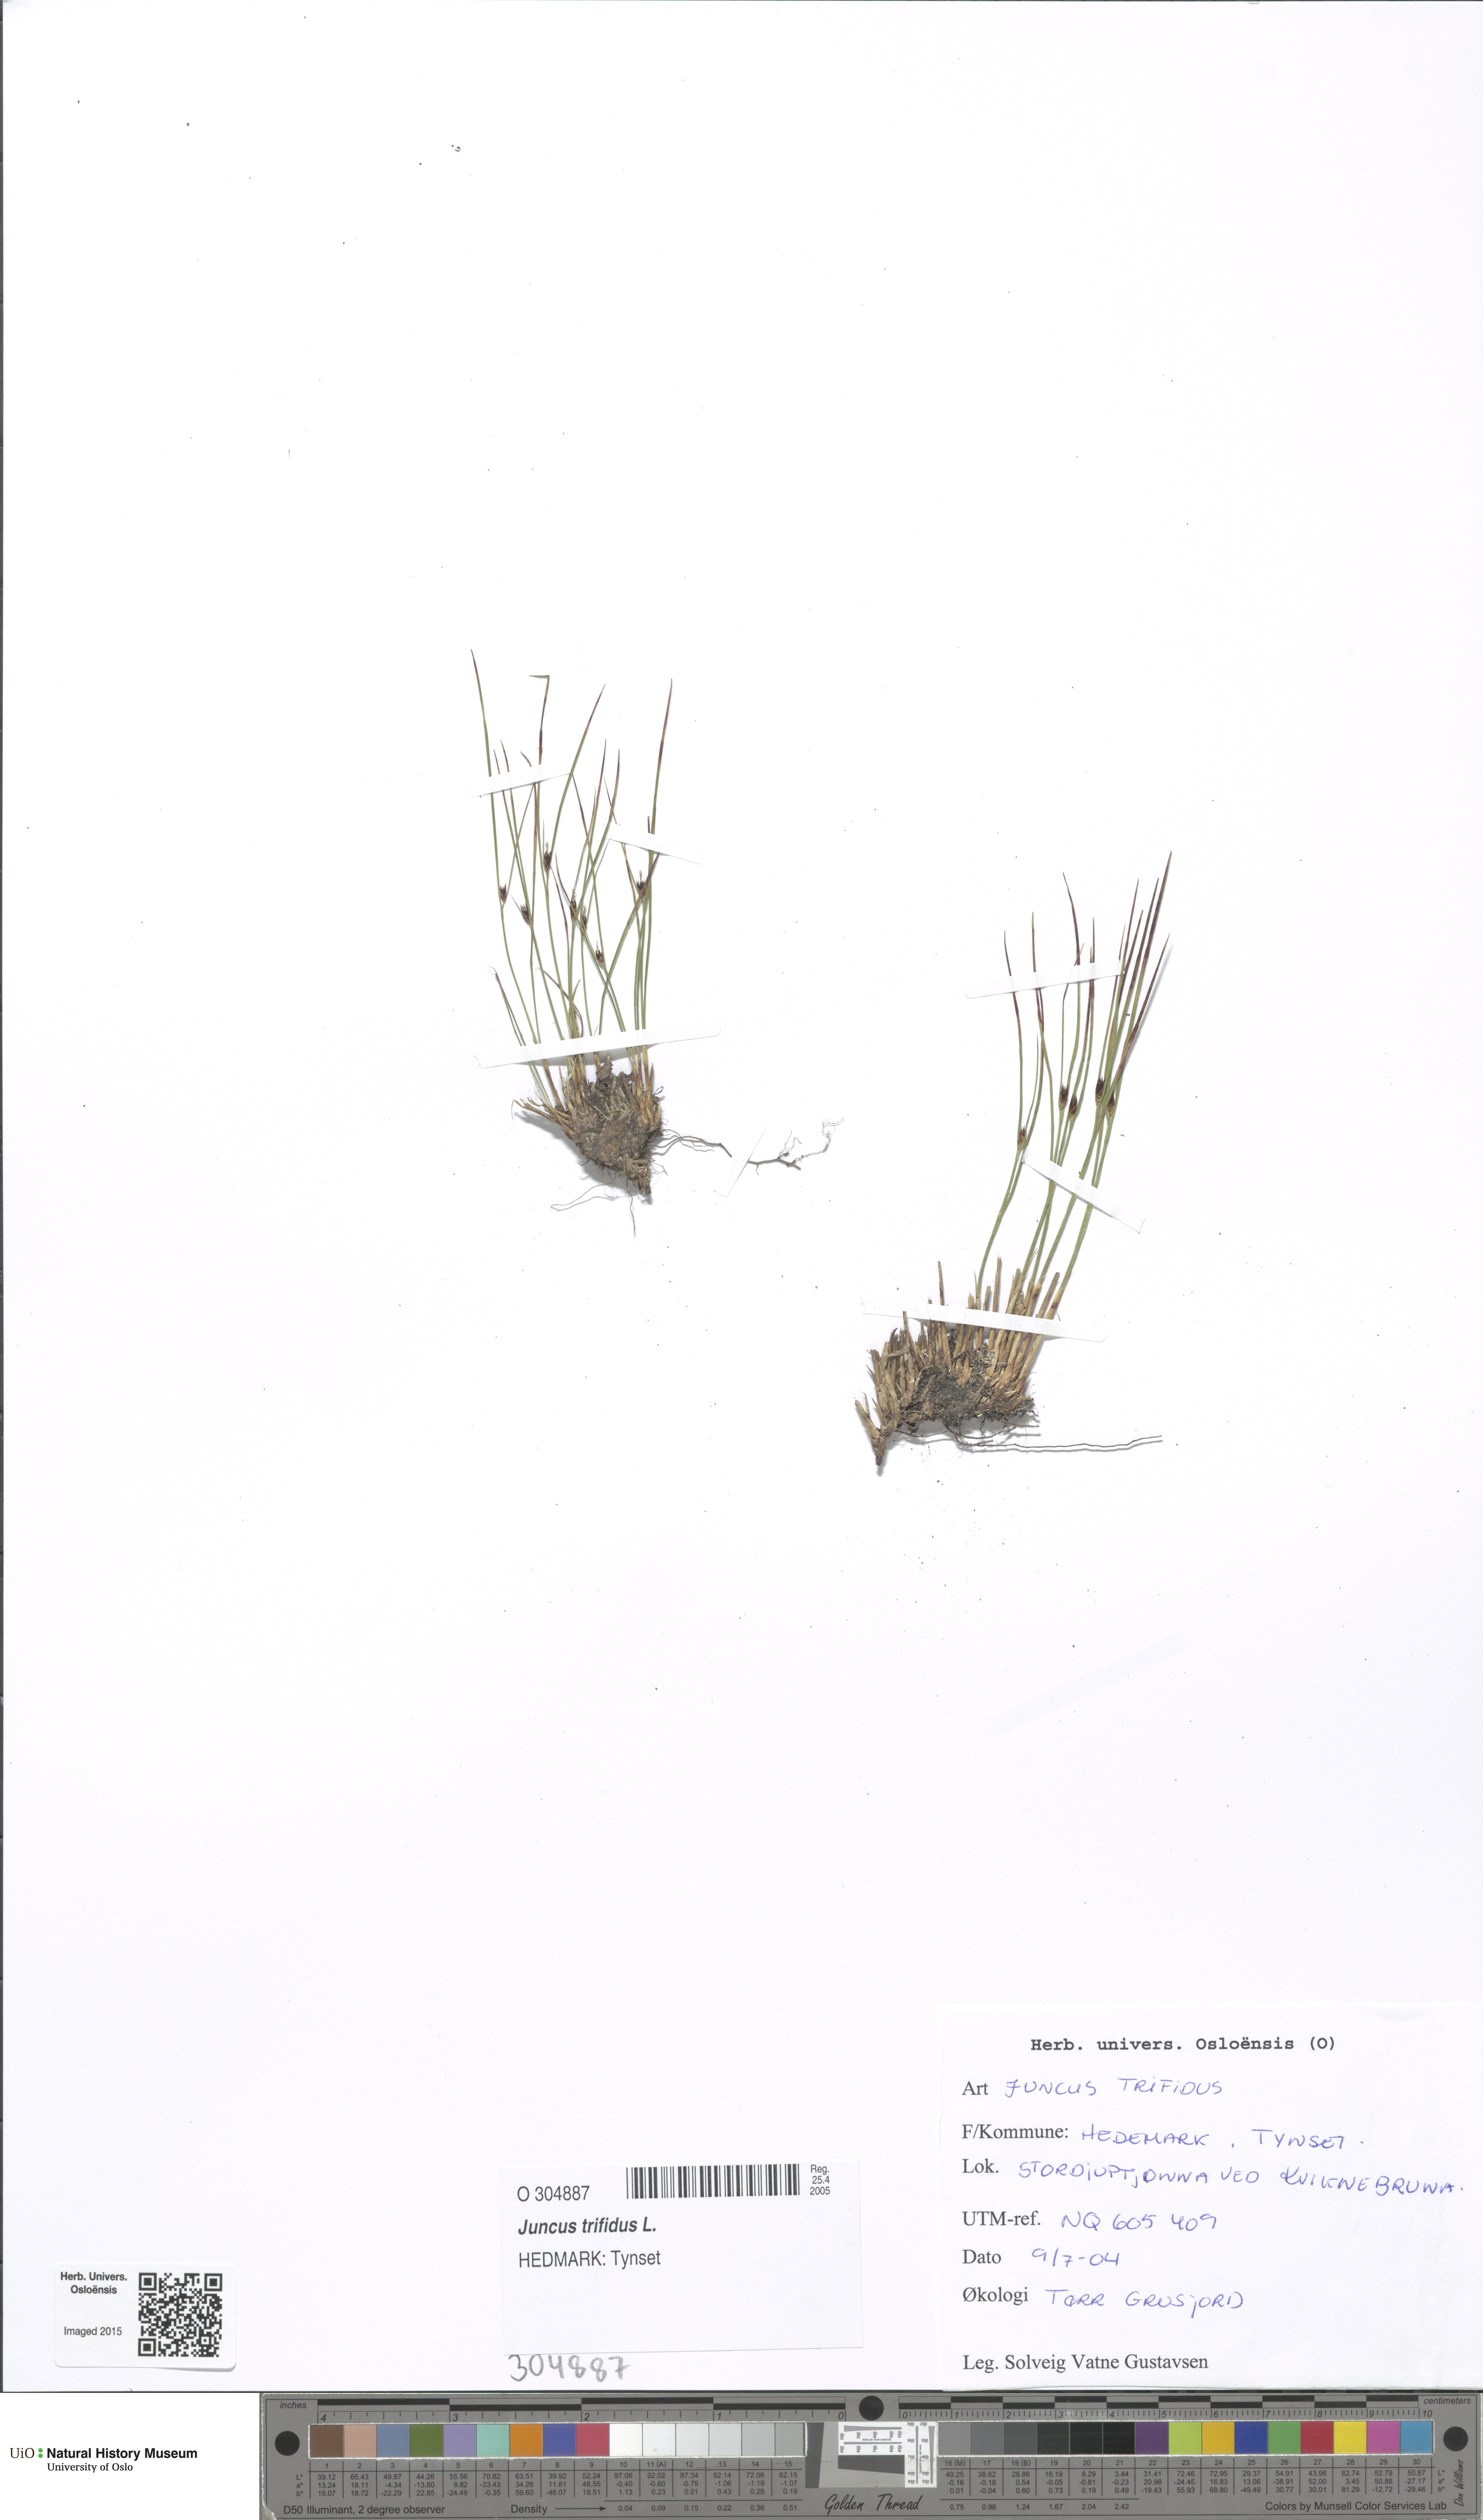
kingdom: Plantae
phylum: Tracheophyta
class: Liliopsida
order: Poales
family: Juncaceae
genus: Oreojuncus
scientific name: Oreojuncus trifidus
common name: Highland rush
